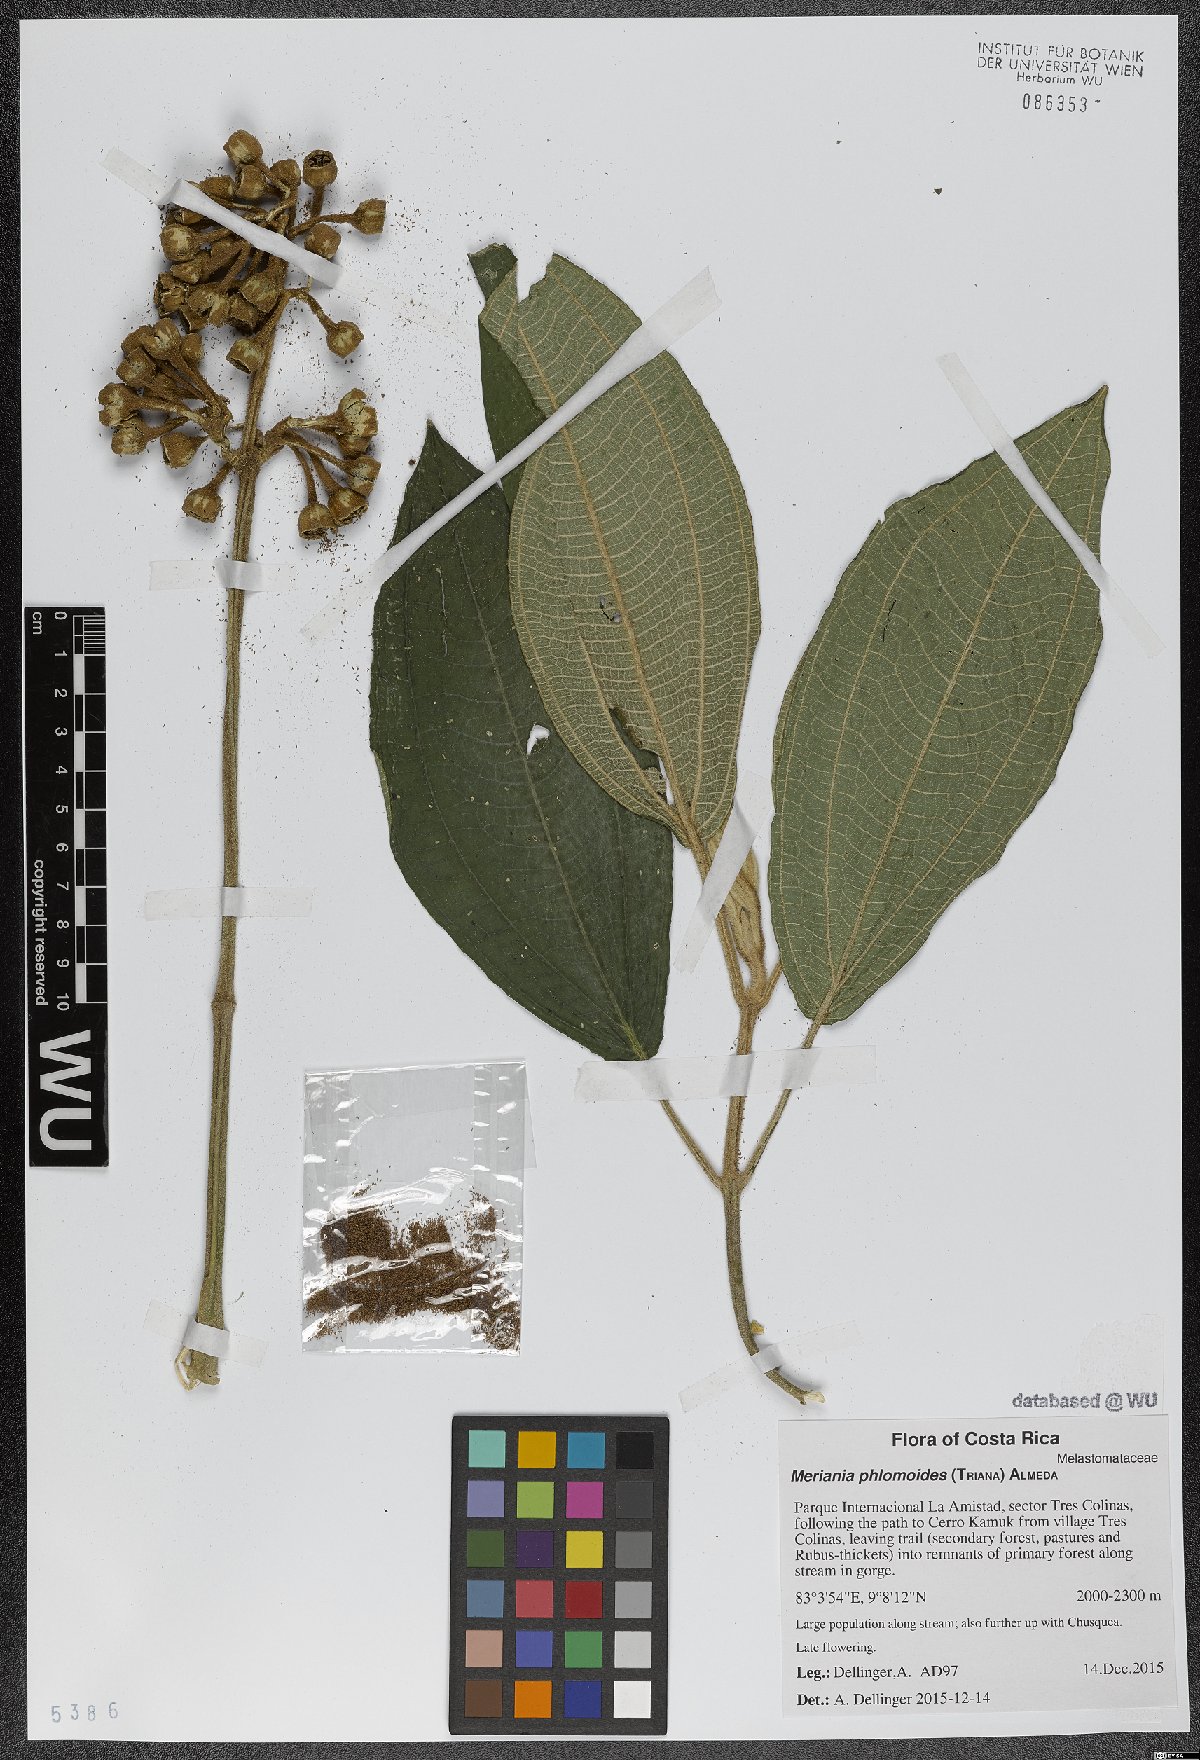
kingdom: Plantae
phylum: Tracheophyta
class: Magnoliopsida
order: Myrtales
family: Melastomataceae
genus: Meriania
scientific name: Meriania phlomoides
